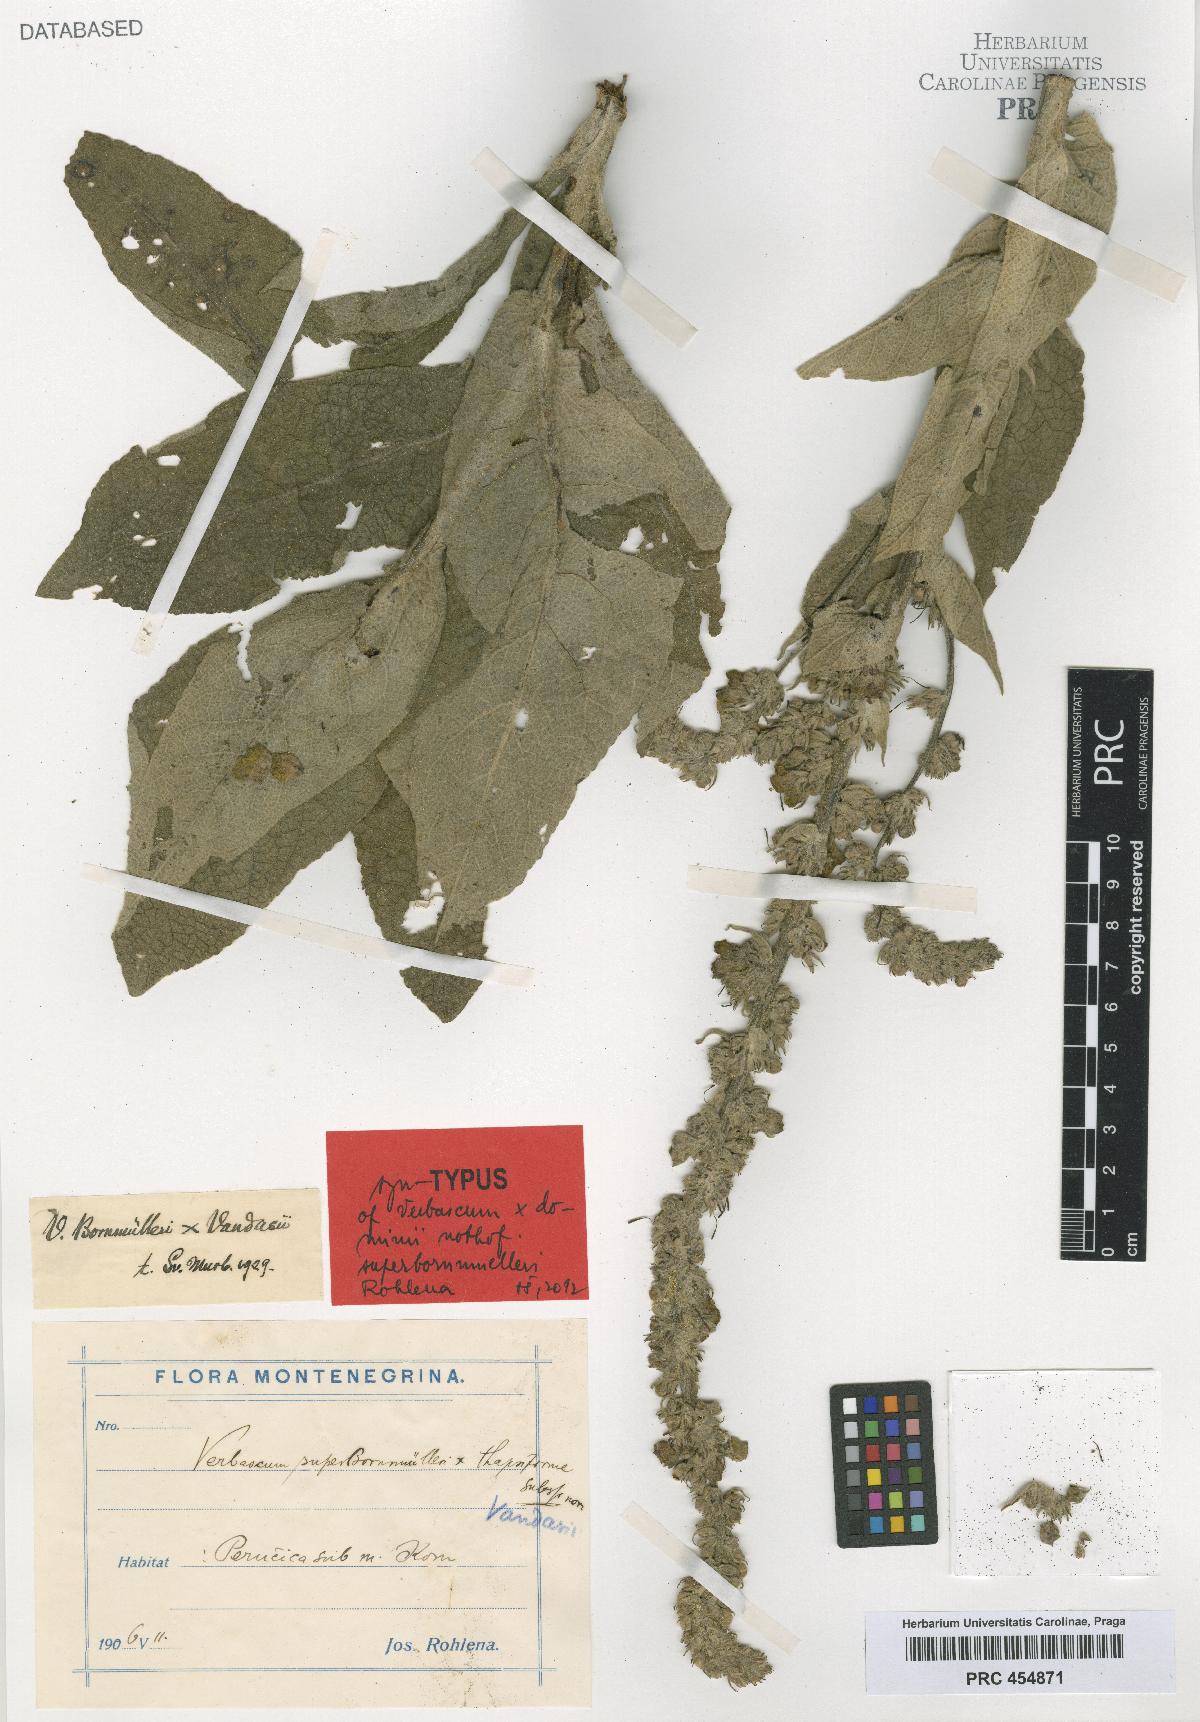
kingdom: Plantae
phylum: Tracheophyta
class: Magnoliopsida
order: Lamiales
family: Scrophulariaceae
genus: Verbascum
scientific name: Verbascum dominii
